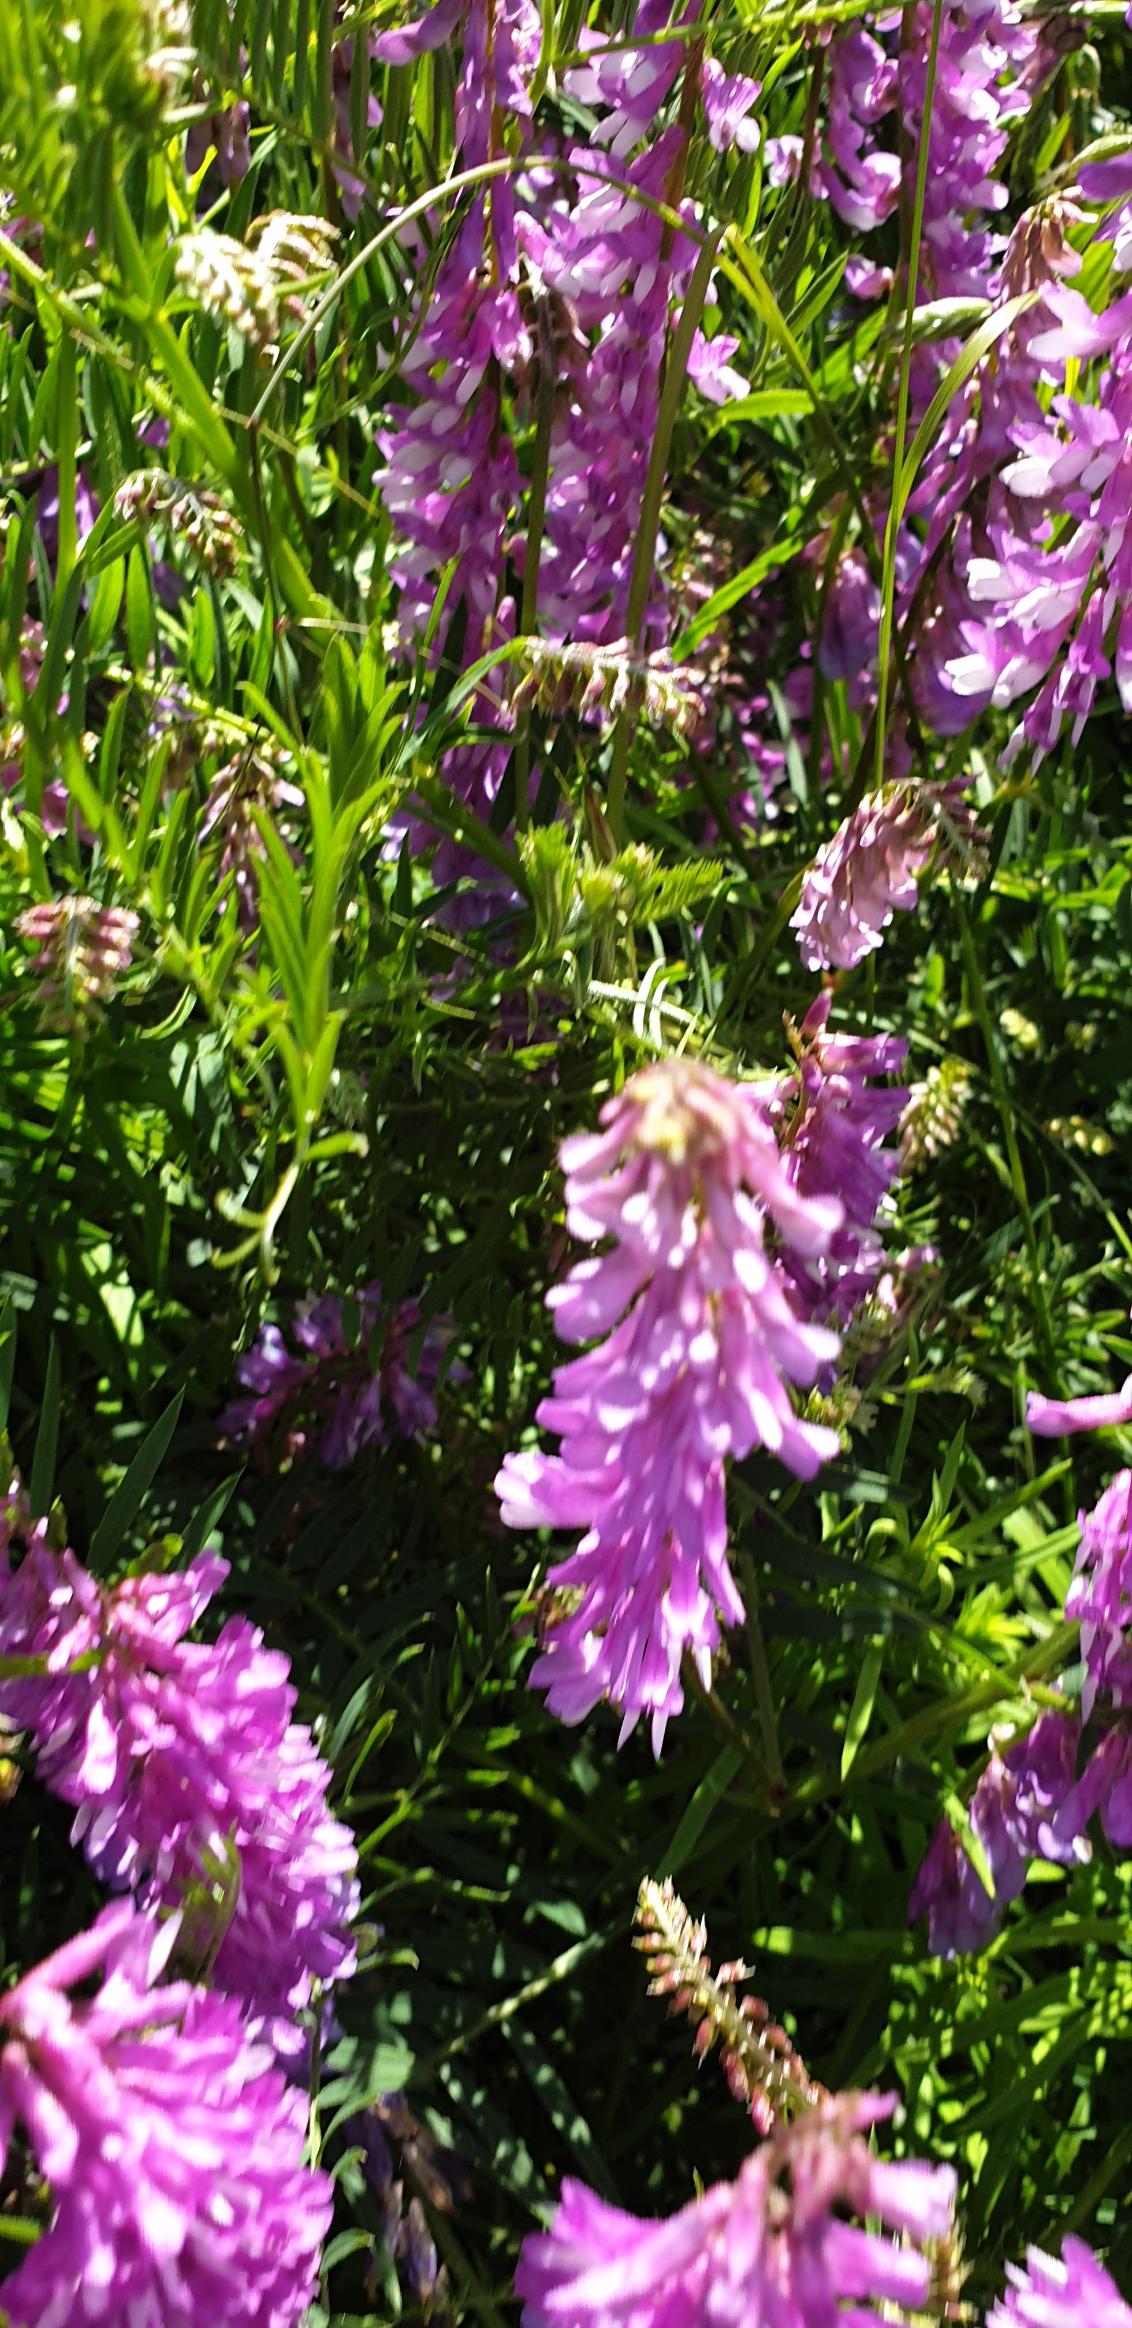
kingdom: Plantae
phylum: Tracheophyta
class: Magnoliopsida
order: Fabales
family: Fabaceae
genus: Vicia
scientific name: Vicia tenuifolia
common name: Langklaset vikke
